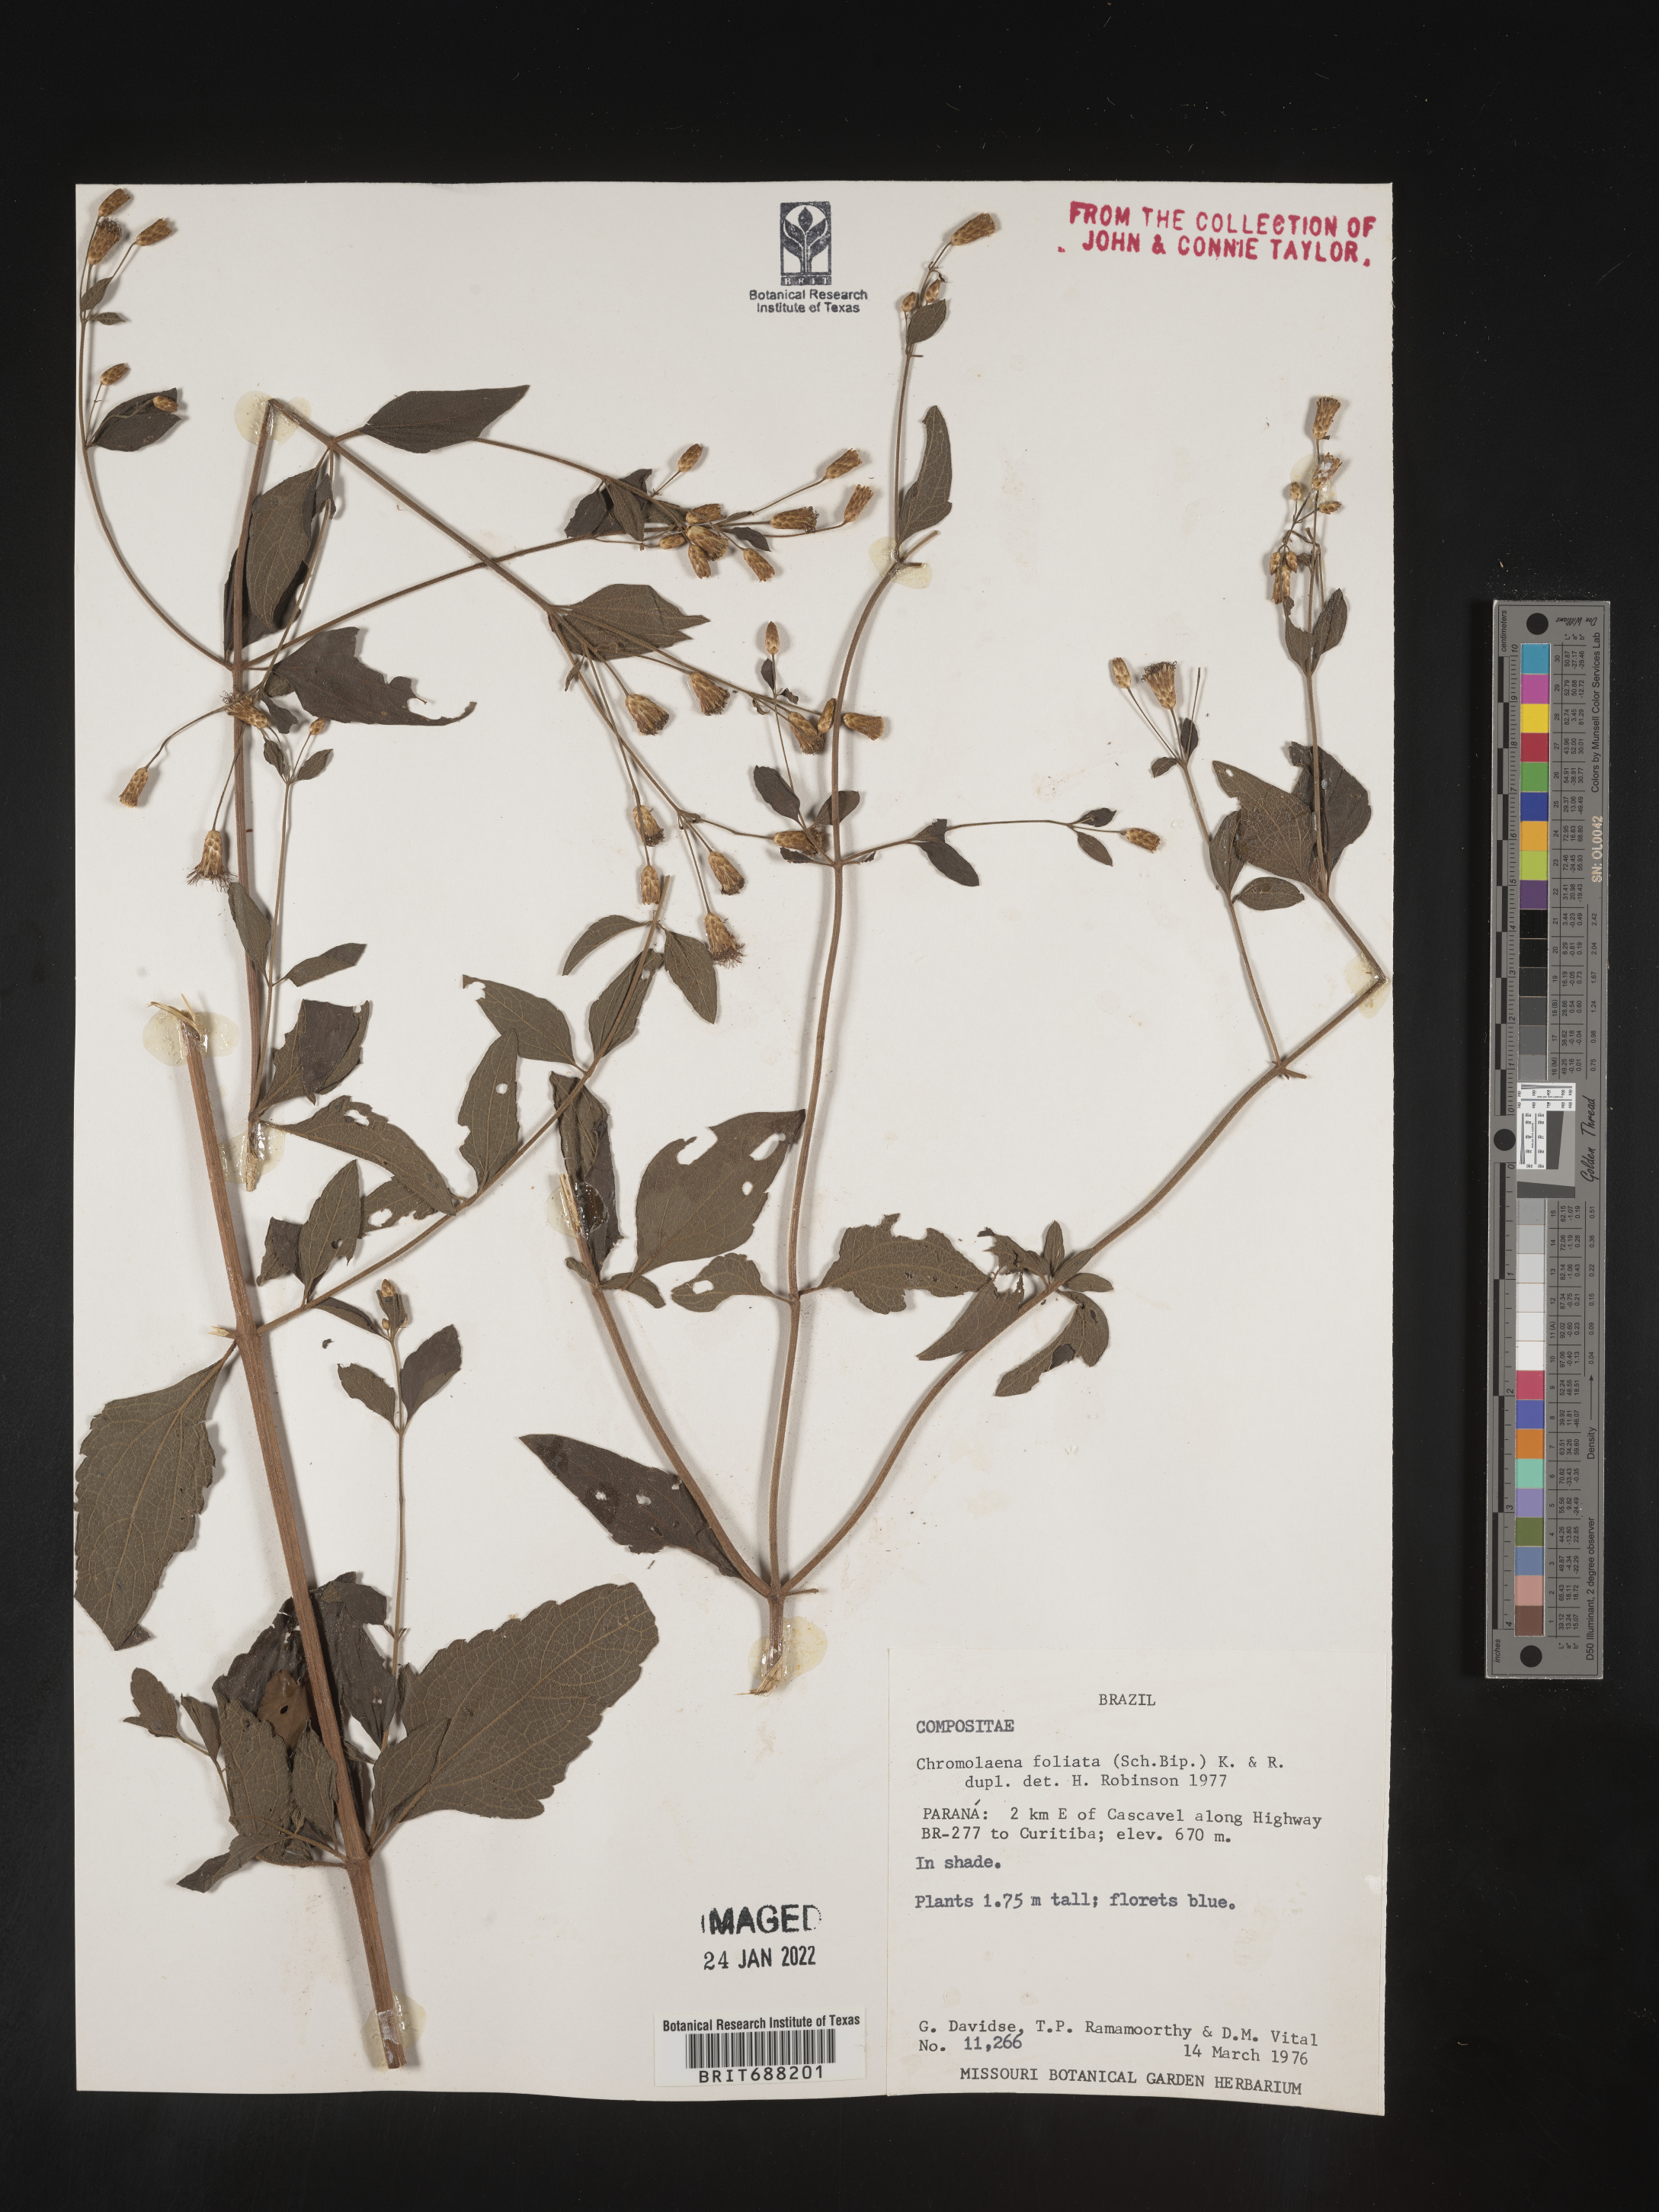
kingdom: Plantae
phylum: Tracheophyta
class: Magnoliopsida
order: Asterales
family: Asteraceae
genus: Chromolaena
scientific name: Chromolaena
